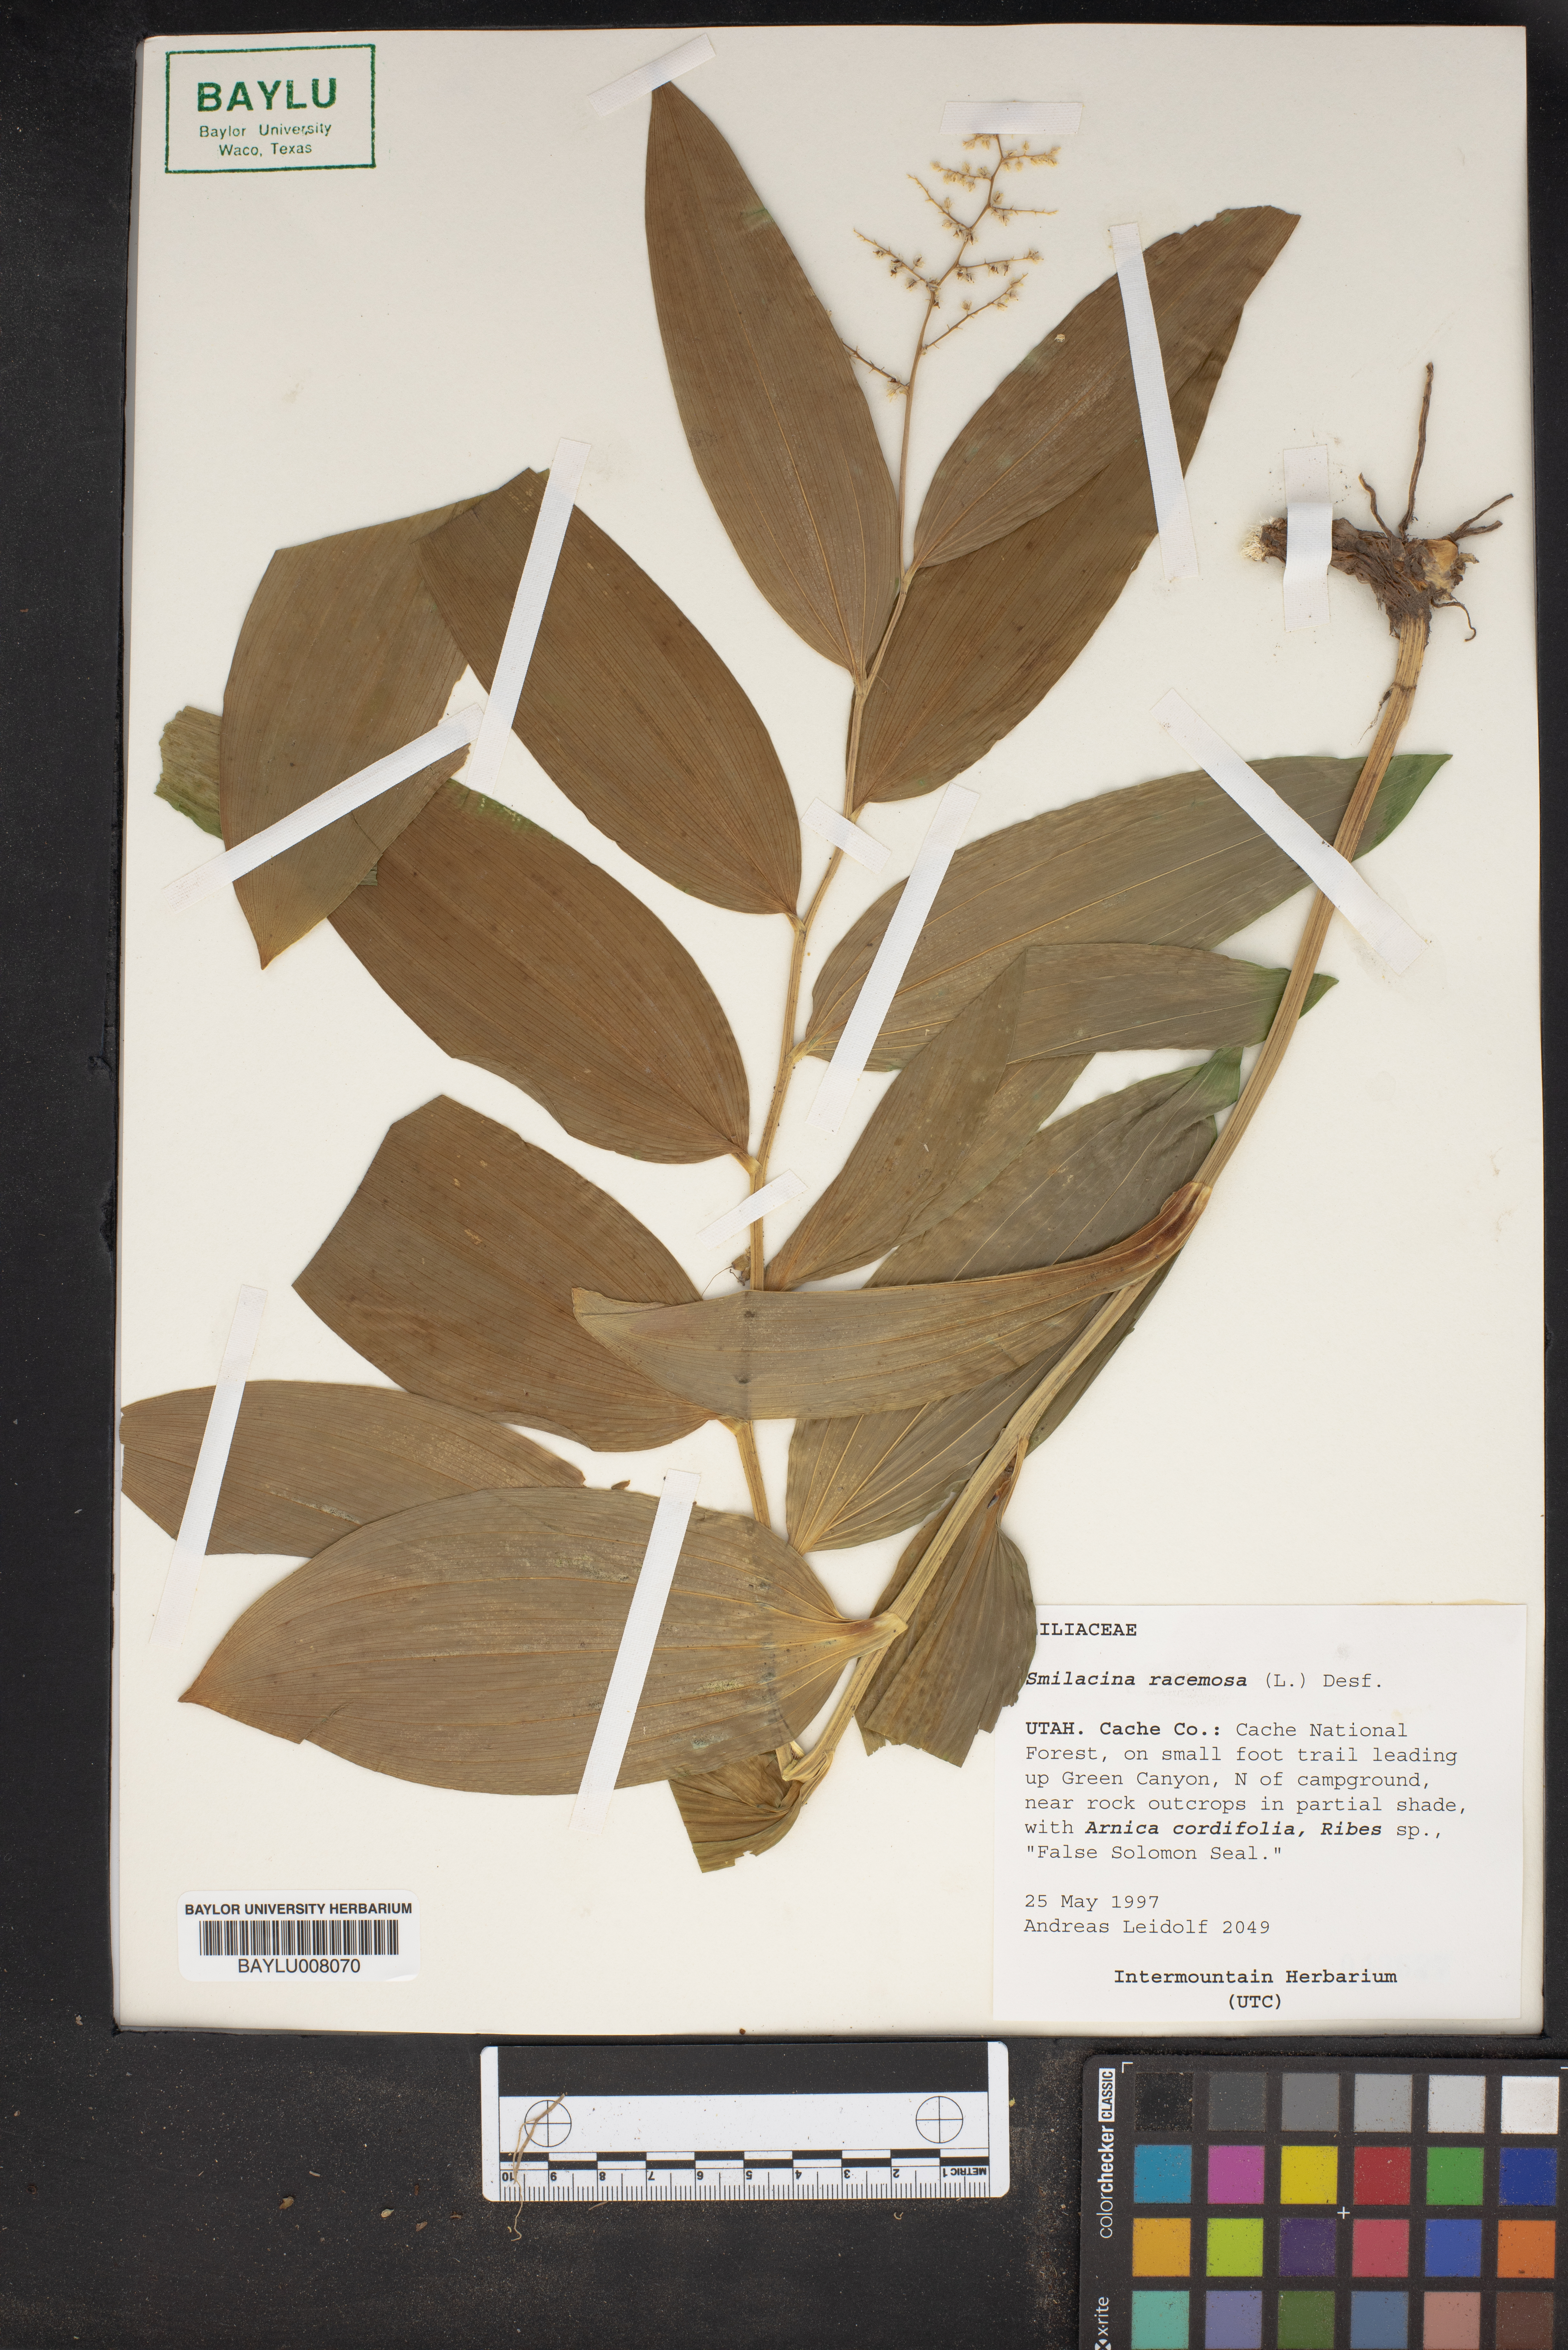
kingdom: Plantae
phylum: Tracheophyta
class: Liliopsida
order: Asparagales
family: Asparagaceae
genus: Maianthemum
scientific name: Maianthemum racemosum
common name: False spikenard
